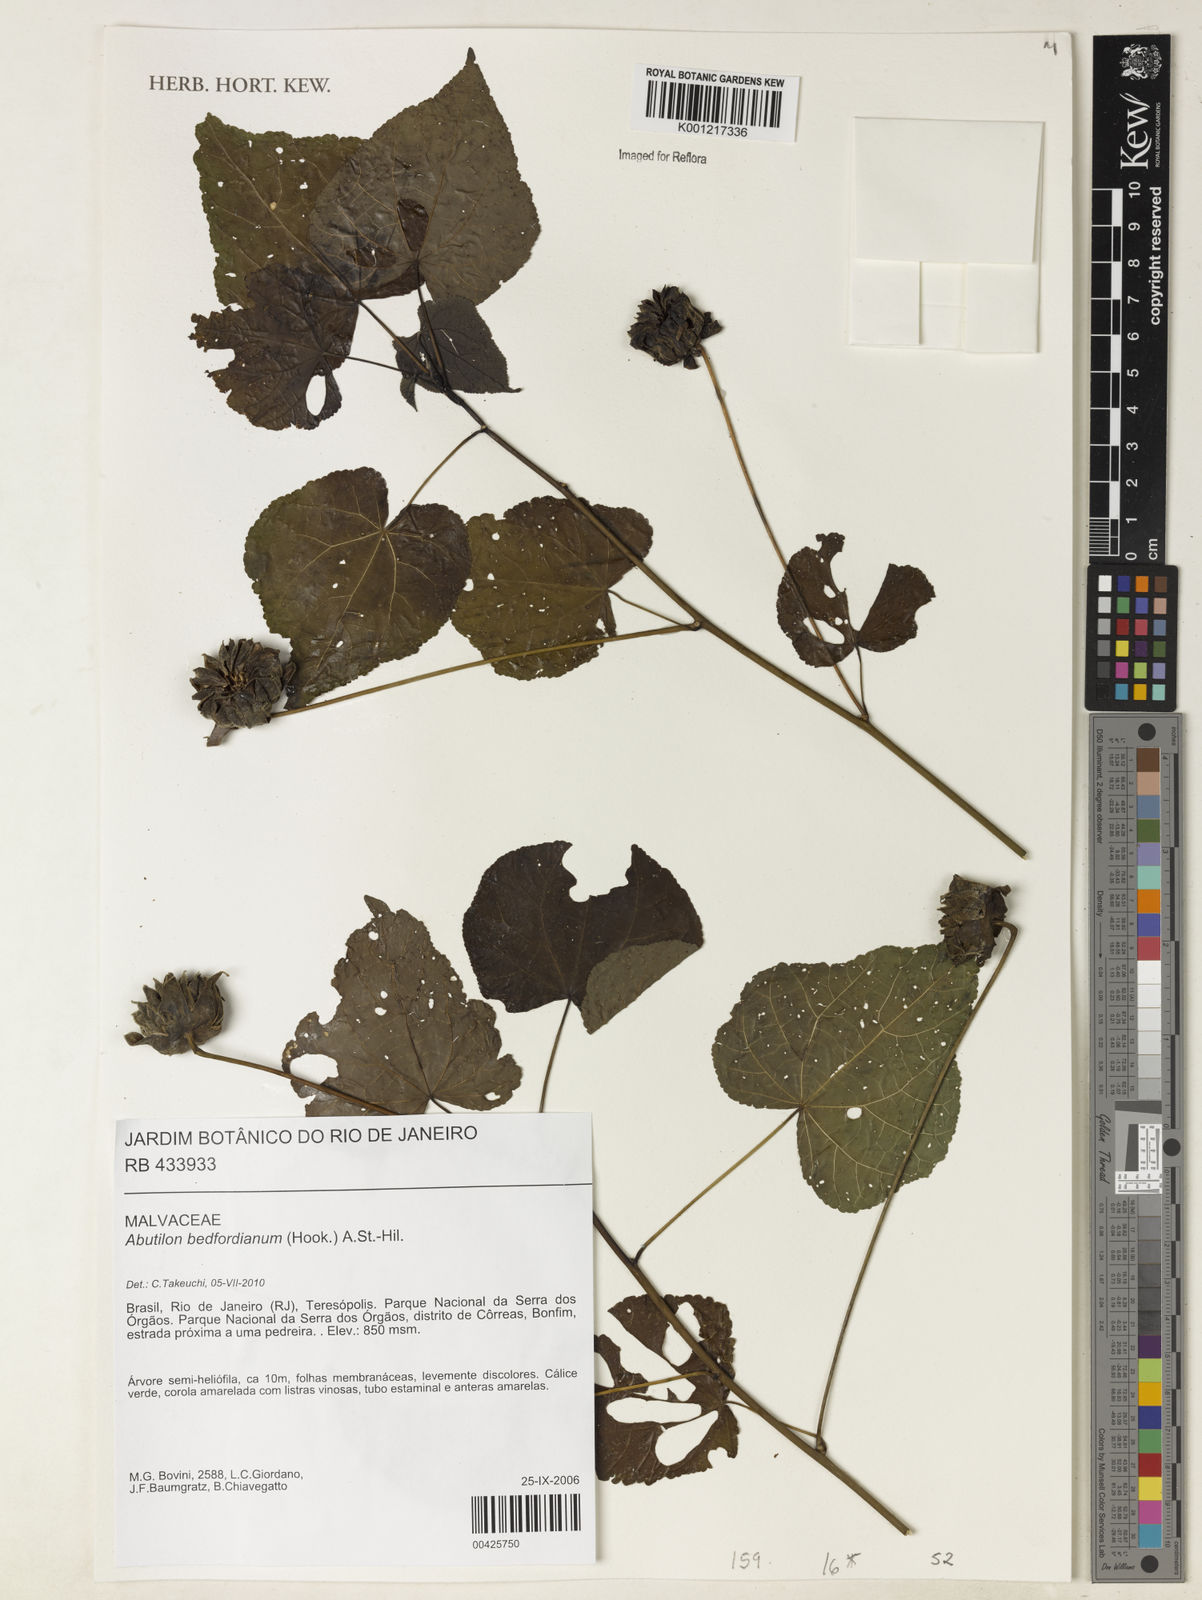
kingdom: Plantae
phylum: Tracheophyta
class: Magnoliopsida
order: Malvales
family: Malvaceae
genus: Callianthe
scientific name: Callianthe bedfordiana
